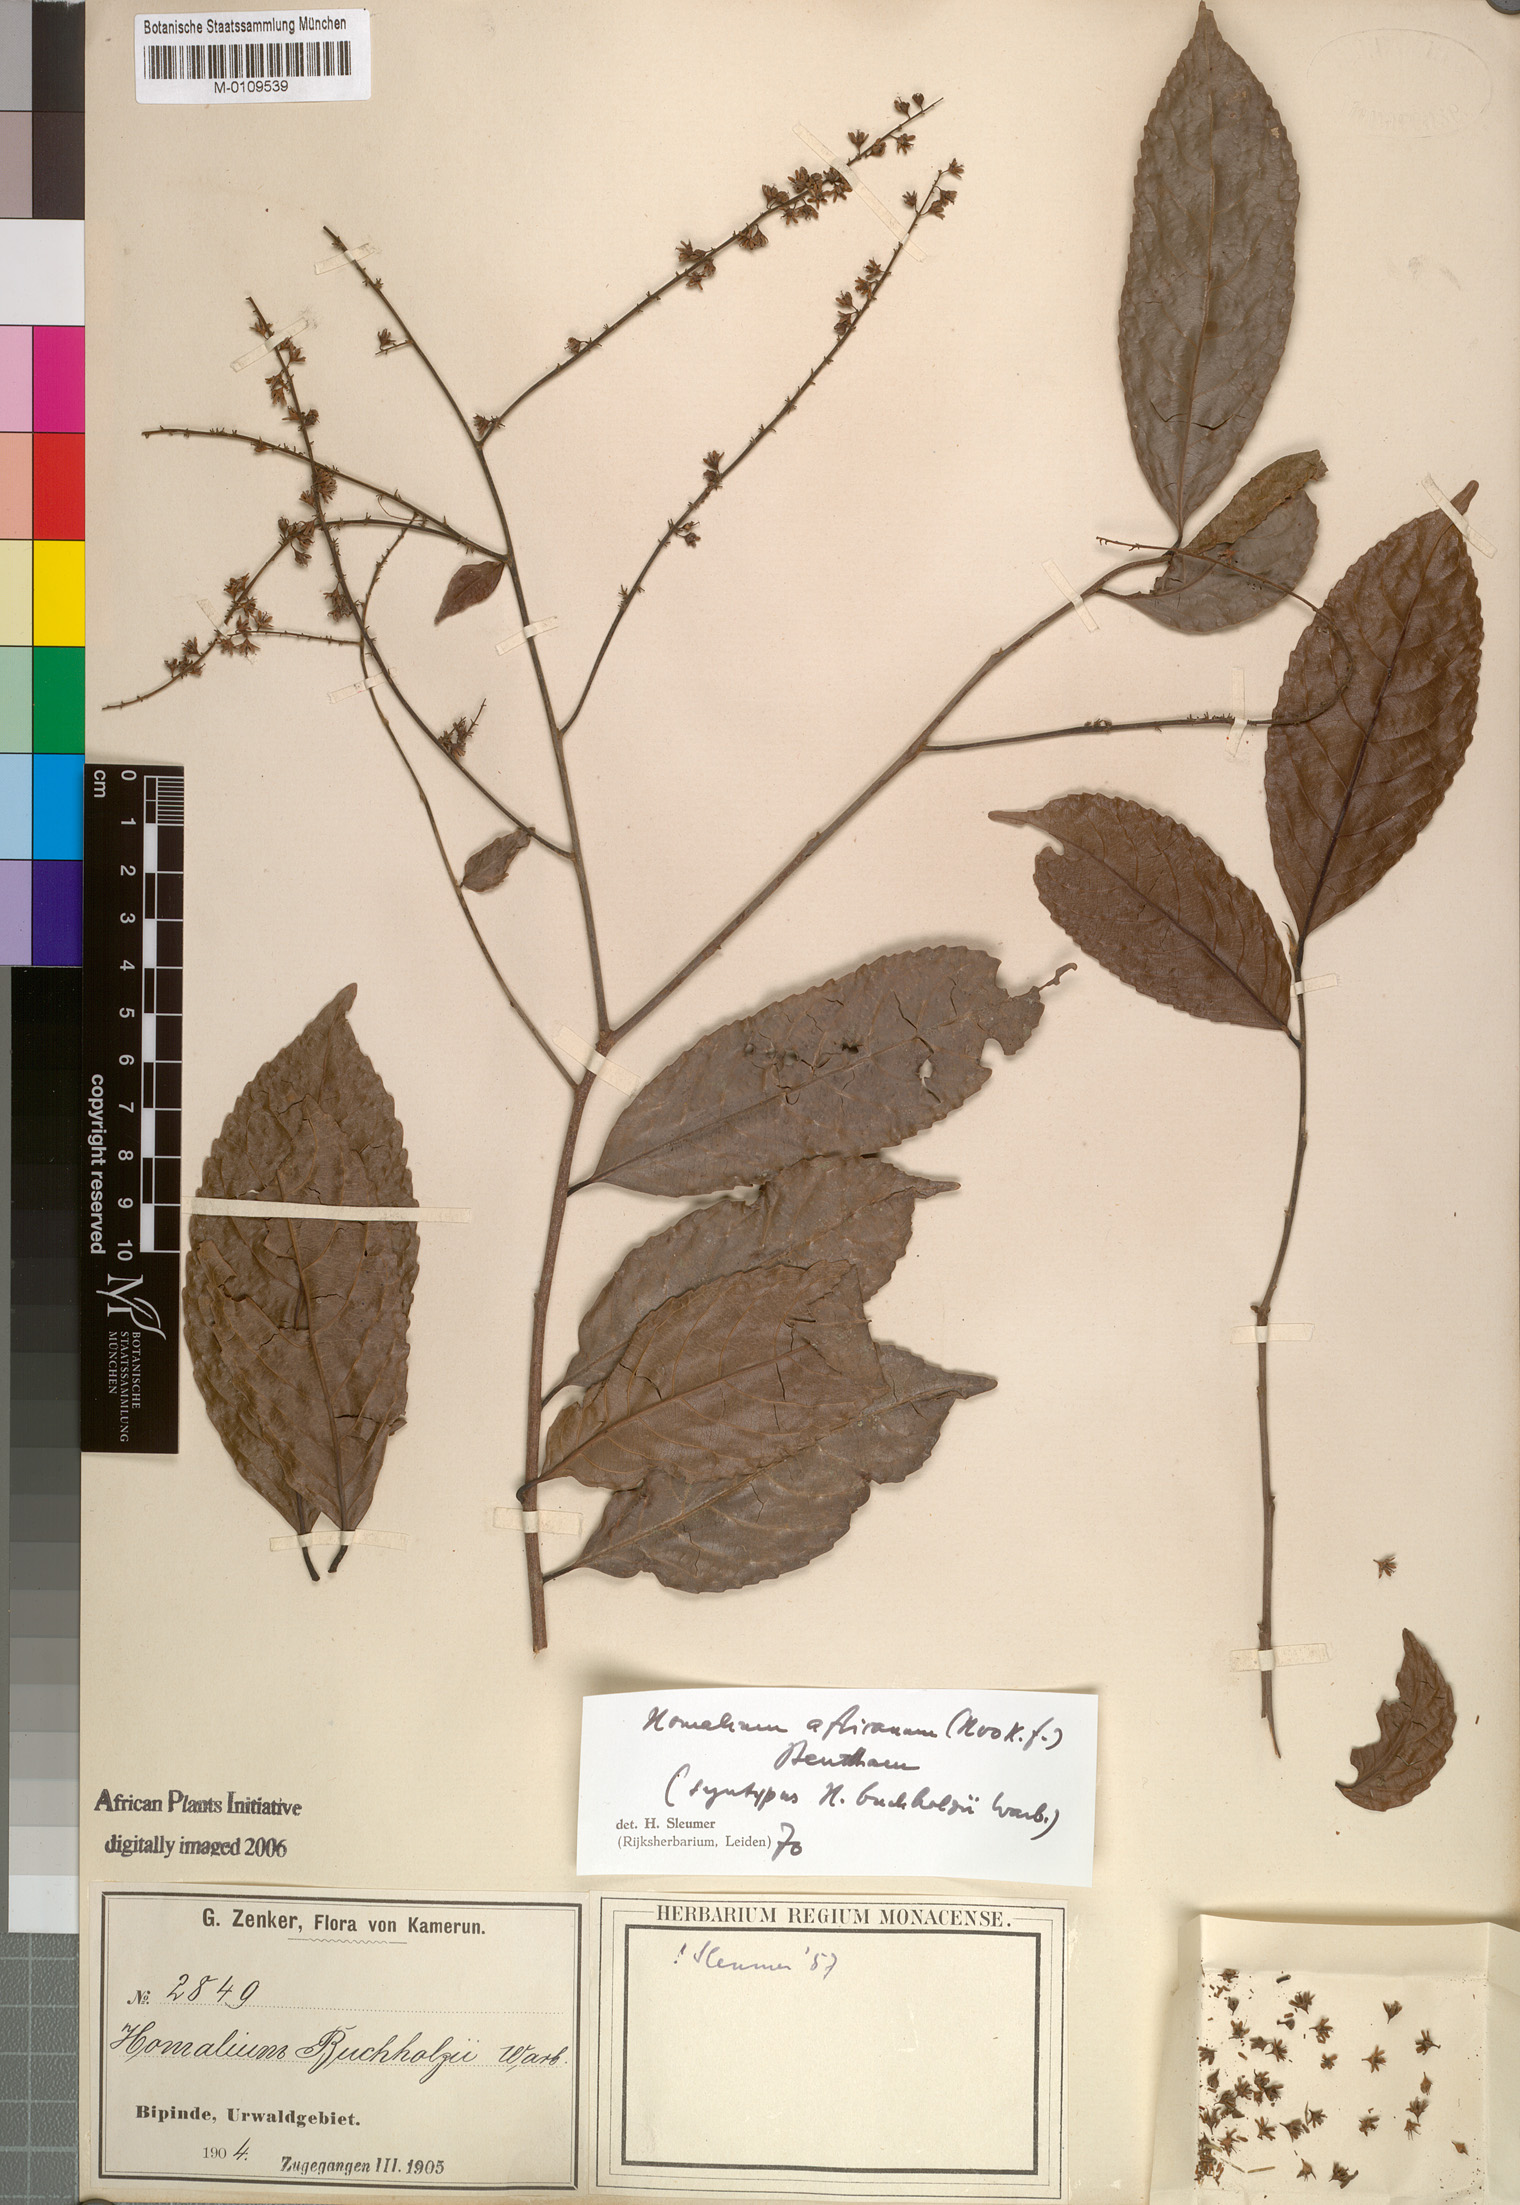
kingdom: Plantae
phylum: Tracheophyta
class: Magnoliopsida
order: Malpighiales
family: Salicaceae
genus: Homalium
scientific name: Homalium africanum
